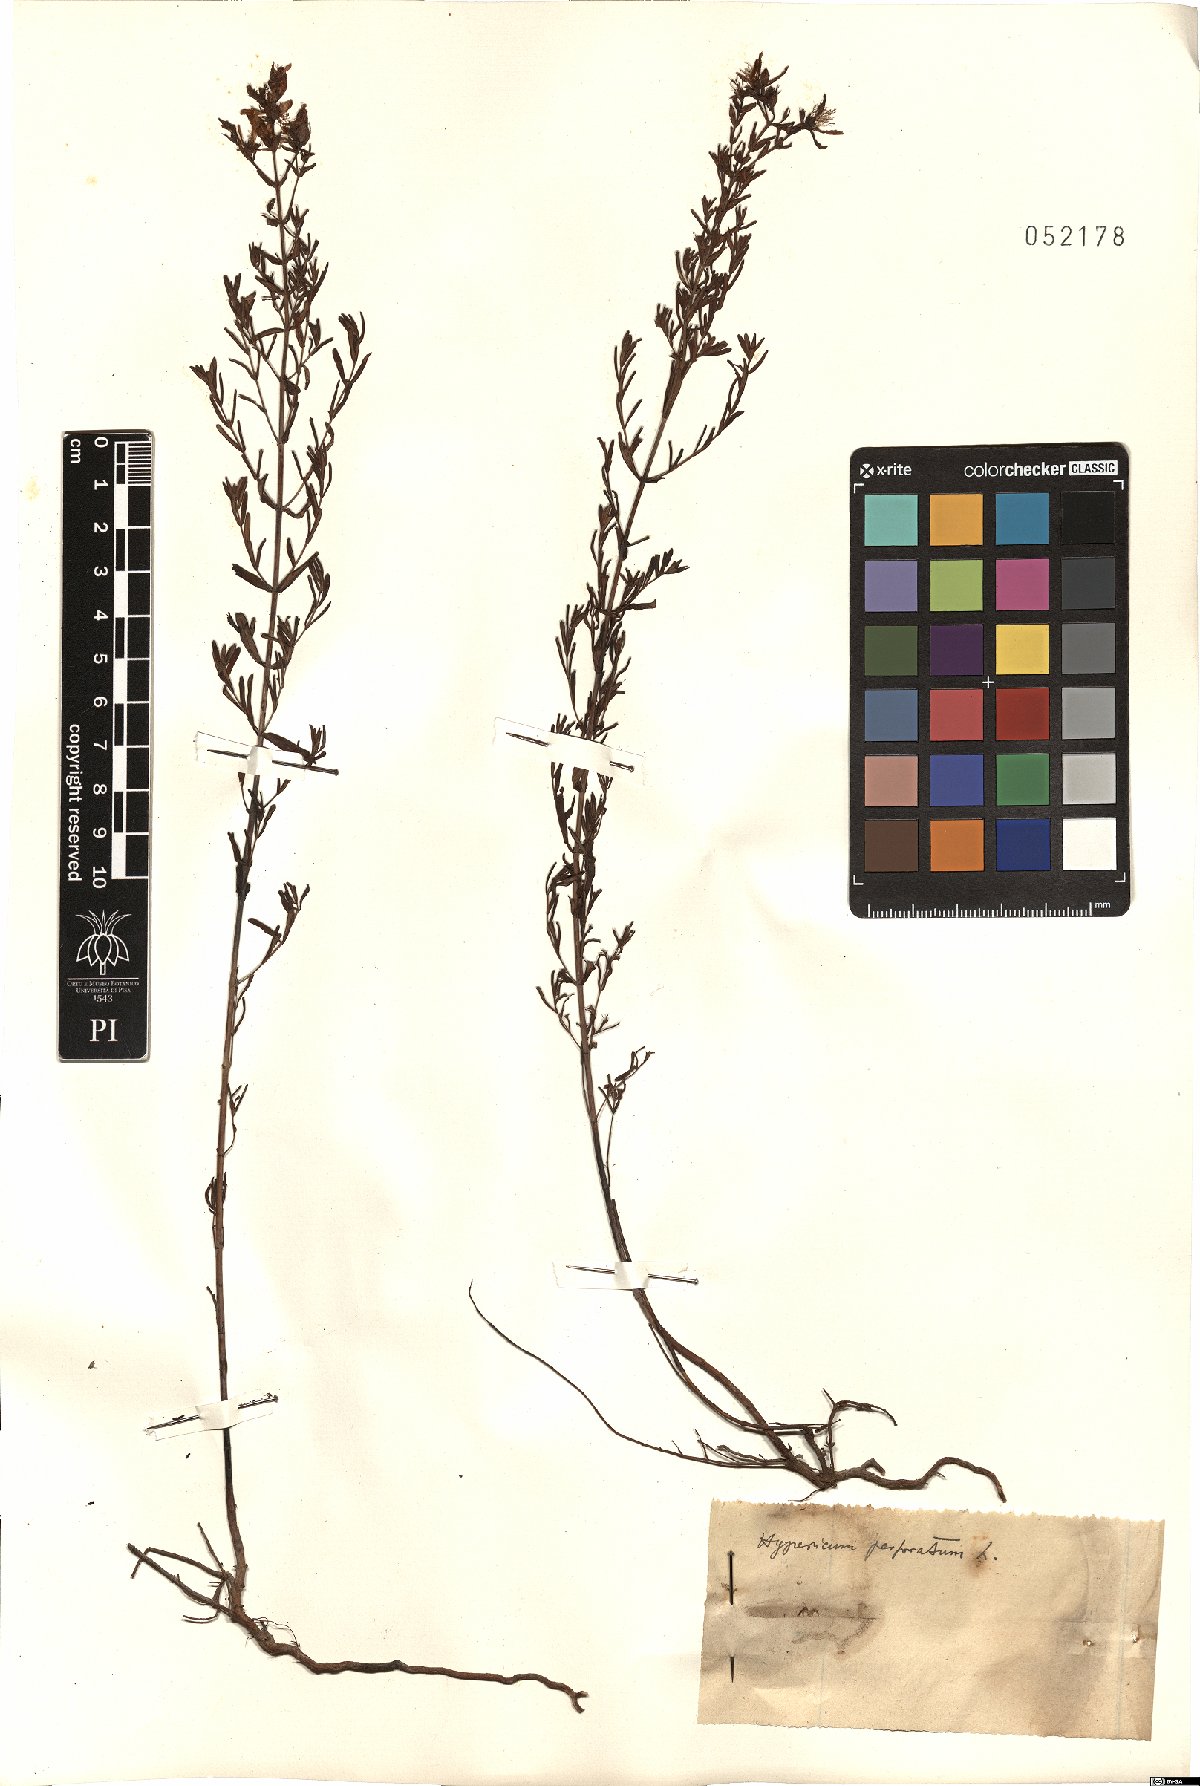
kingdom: Plantae
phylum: Tracheophyta
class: Magnoliopsida
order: Malpighiales
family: Hypericaceae
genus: Hypericum
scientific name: Hypericum perforatum
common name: Common st. johnswort
